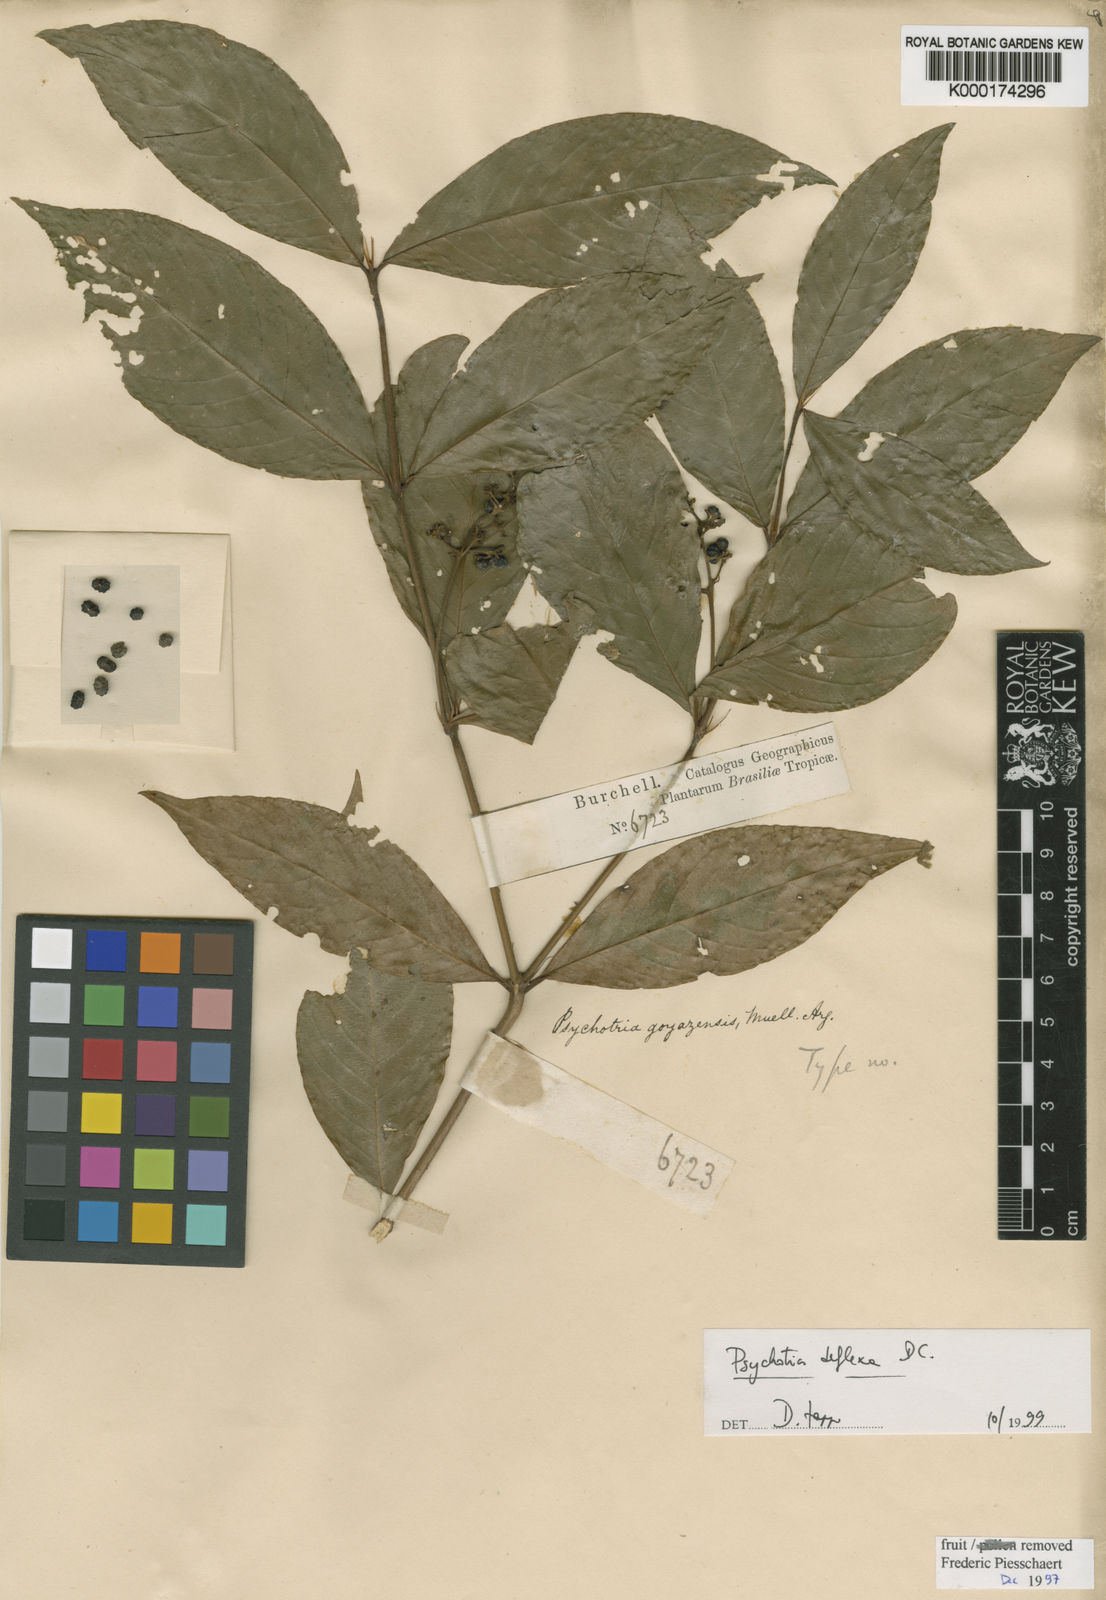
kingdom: Plantae
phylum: Tracheophyta
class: Magnoliopsida
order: Gentianales
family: Rubiaceae
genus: Palicourea
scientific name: Palicourea deflexa
